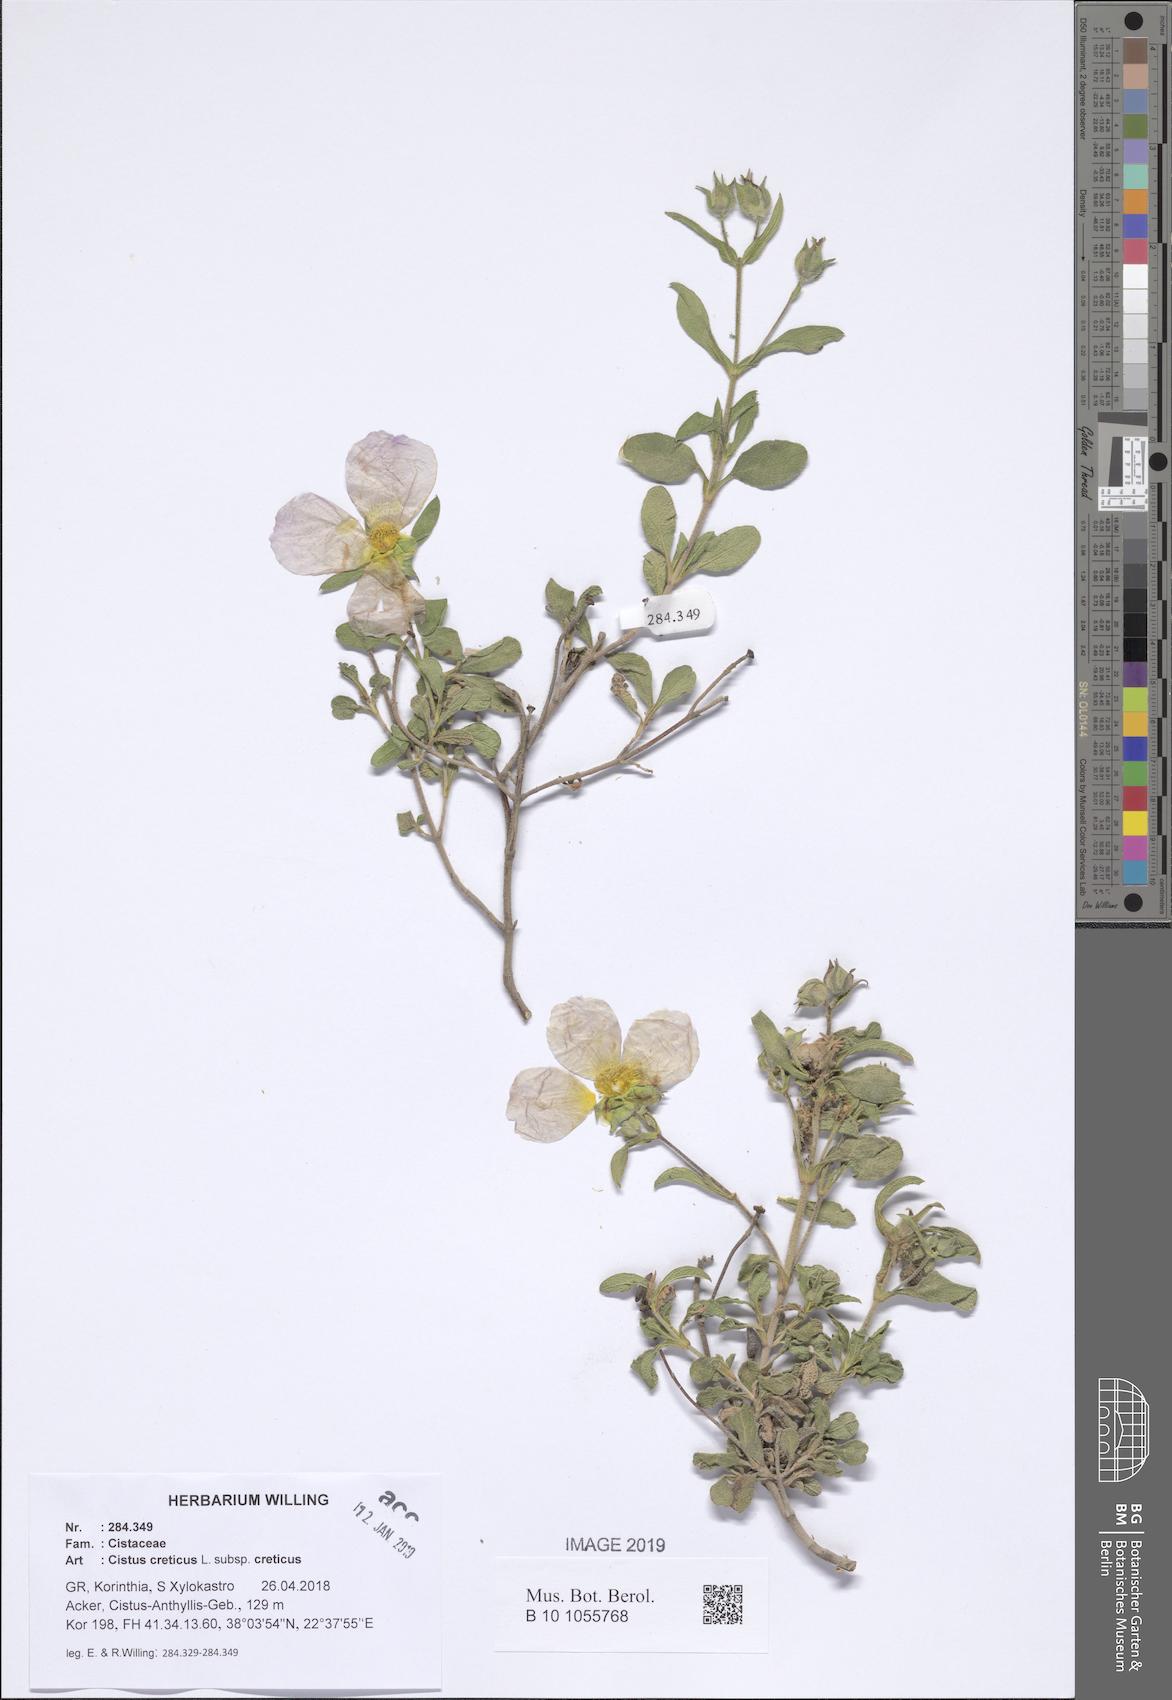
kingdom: Plantae
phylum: Tracheophyta
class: Magnoliopsida
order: Malvales
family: Cistaceae
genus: Cistus
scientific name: Cistus creticus
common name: Cretan rockrose
